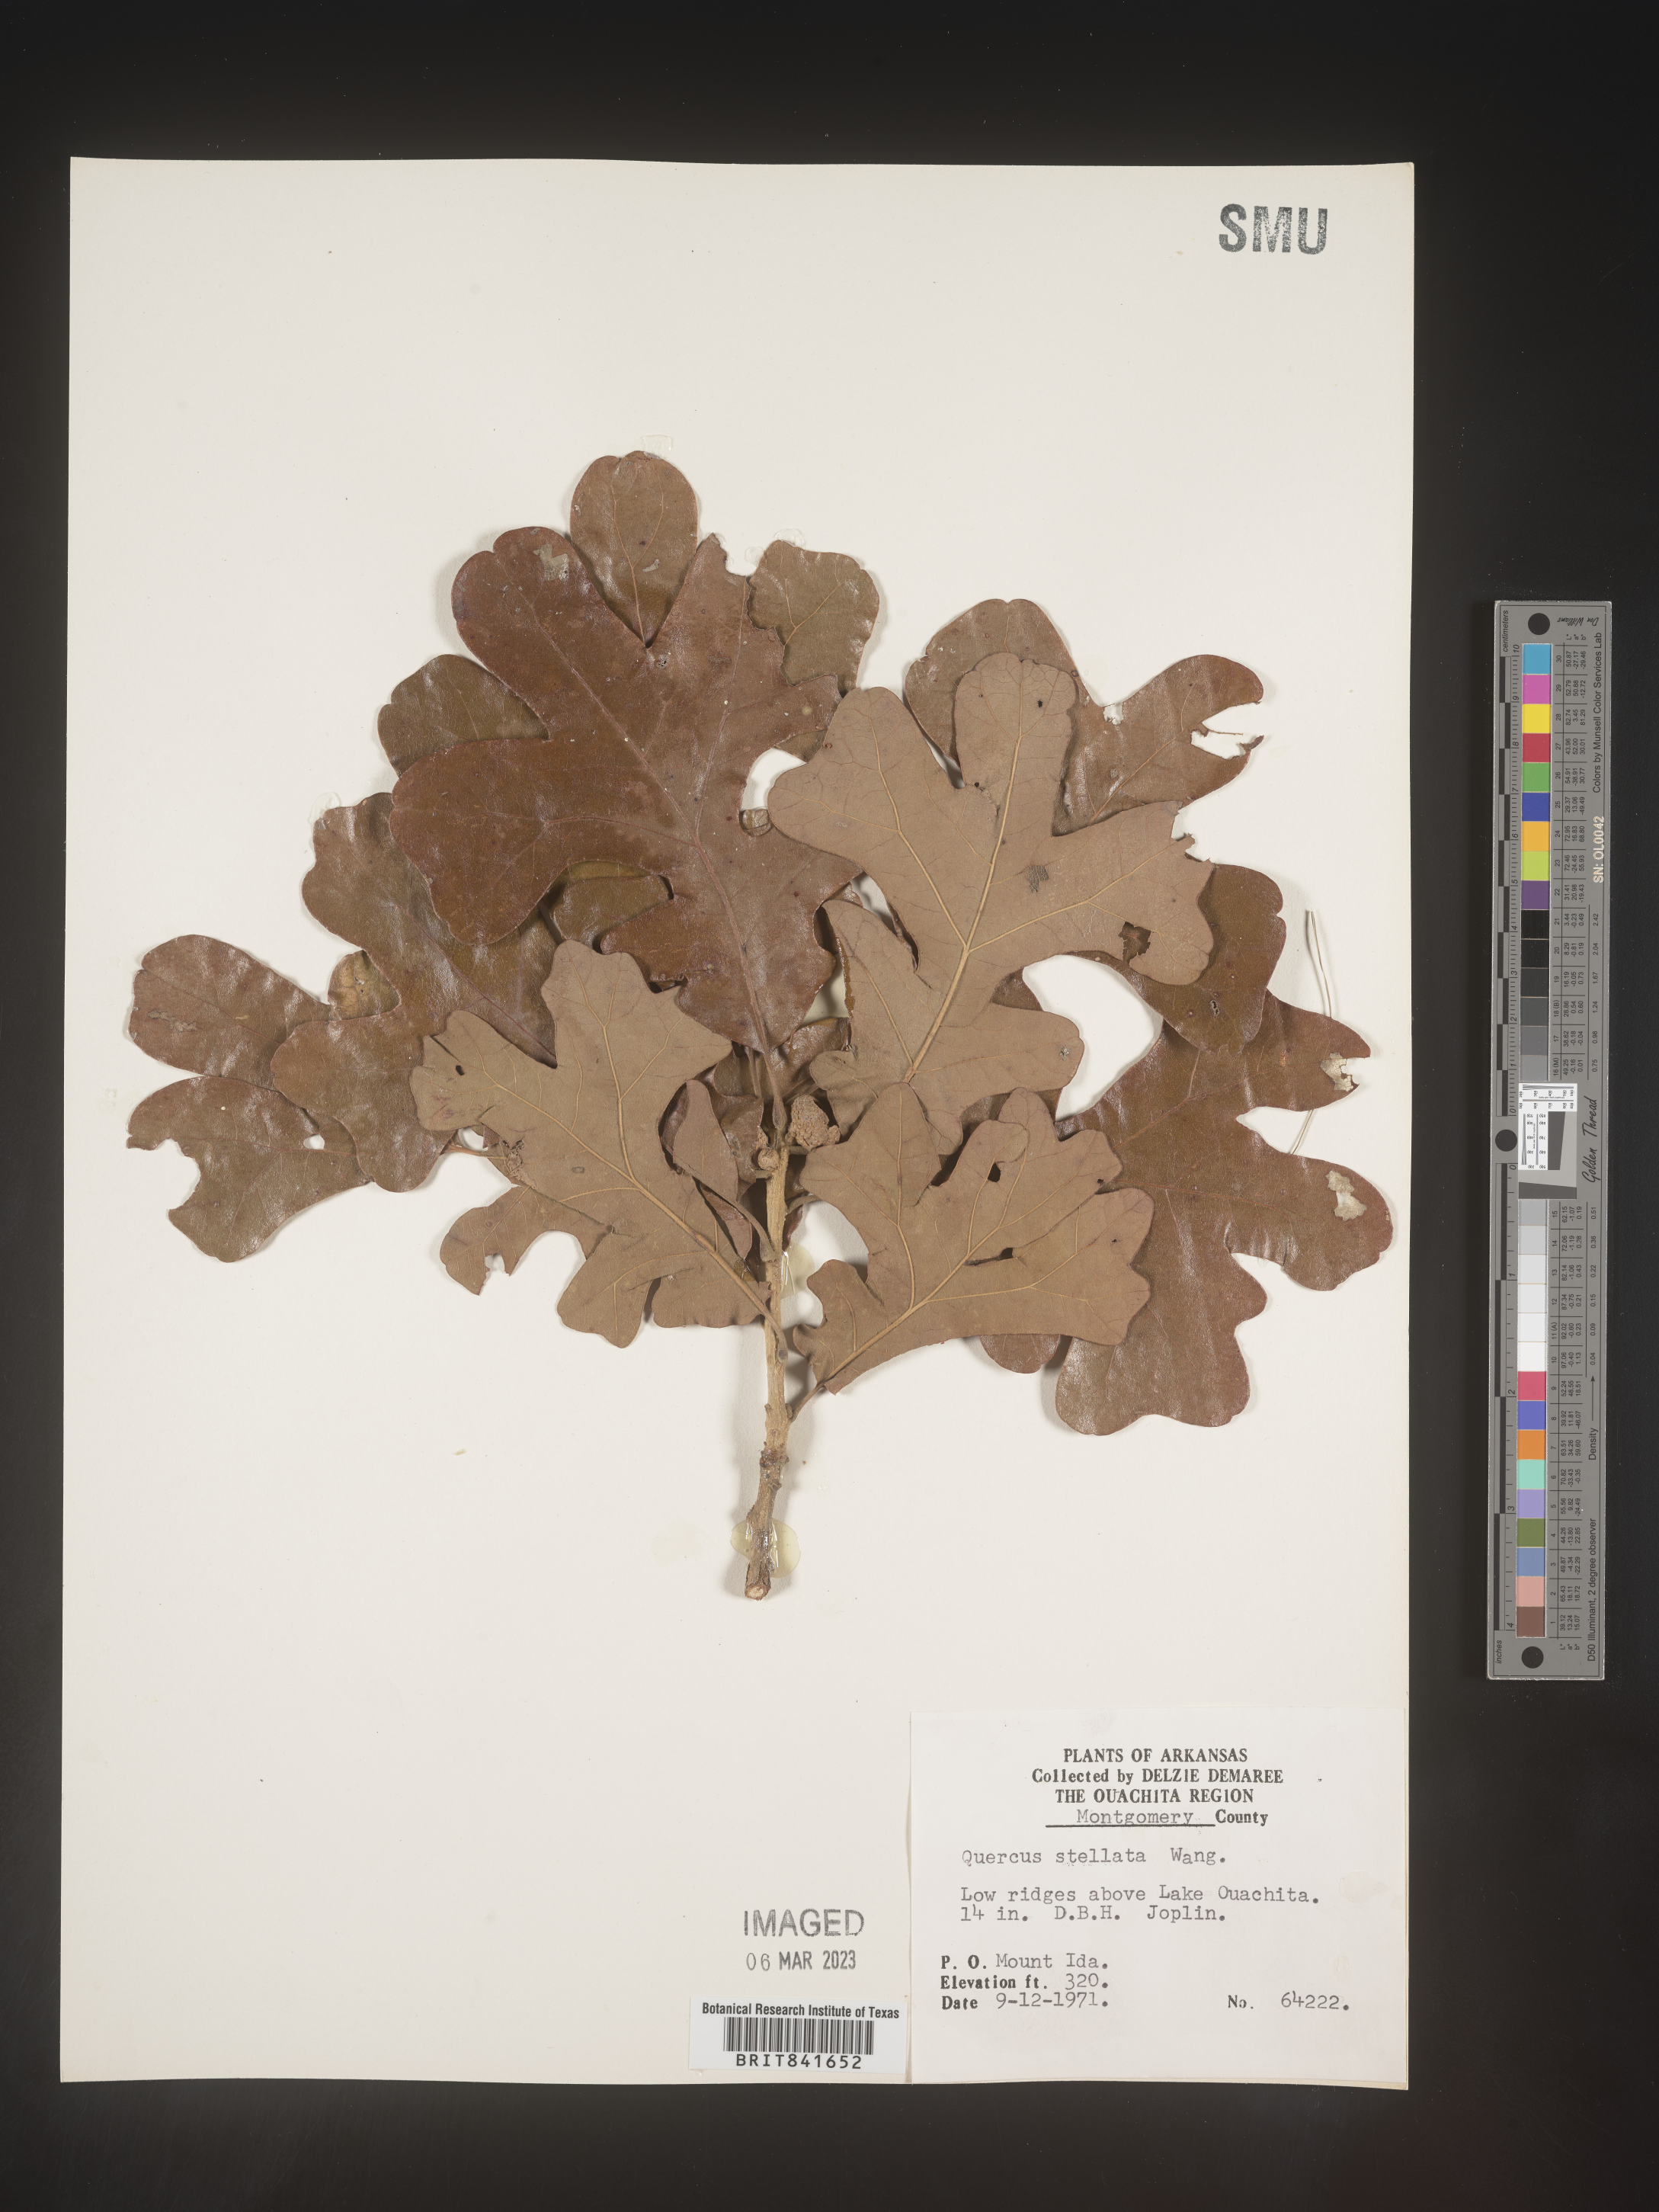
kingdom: Plantae
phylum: Tracheophyta
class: Magnoliopsida
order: Fagales
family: Fagaceae
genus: Quercus
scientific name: Quercus stellata
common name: Post oak
